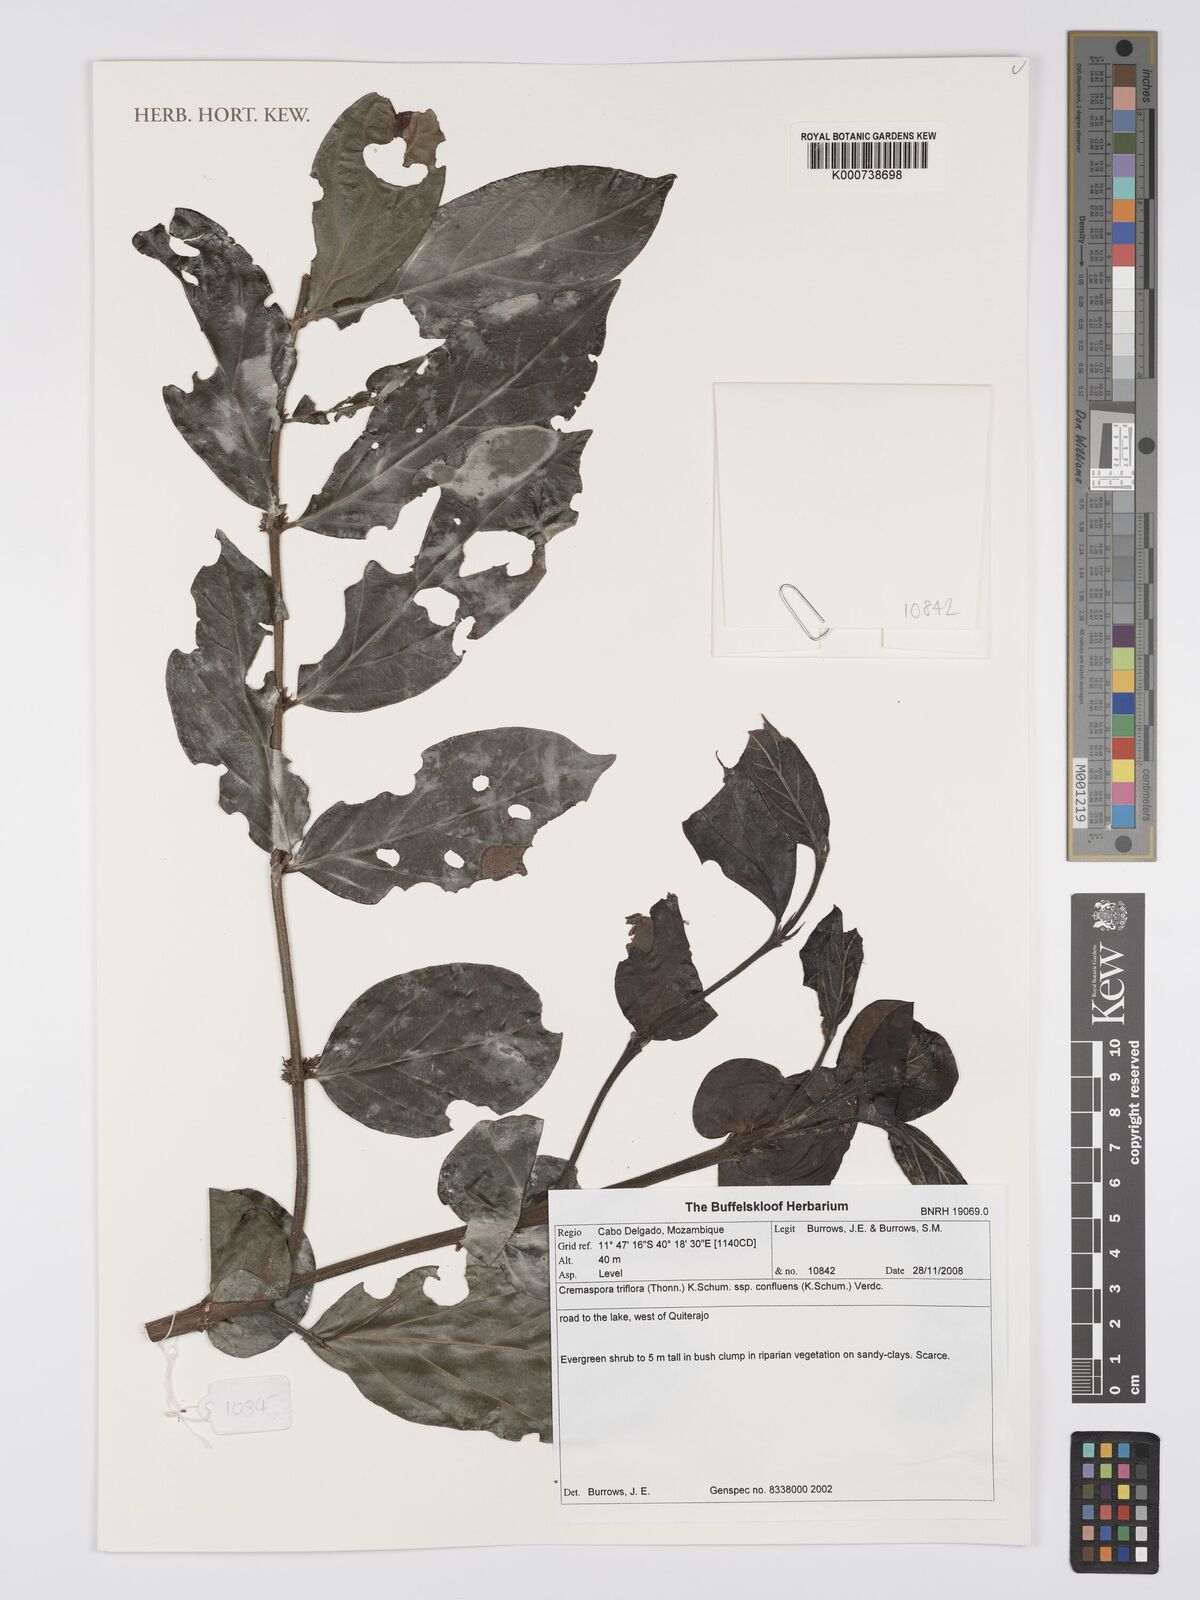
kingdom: Plantae
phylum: Tracheophyta
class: Magnoliopsida
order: Gentianales
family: Rubiaceae
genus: Cremaspora
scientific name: Cremaspora triflora
